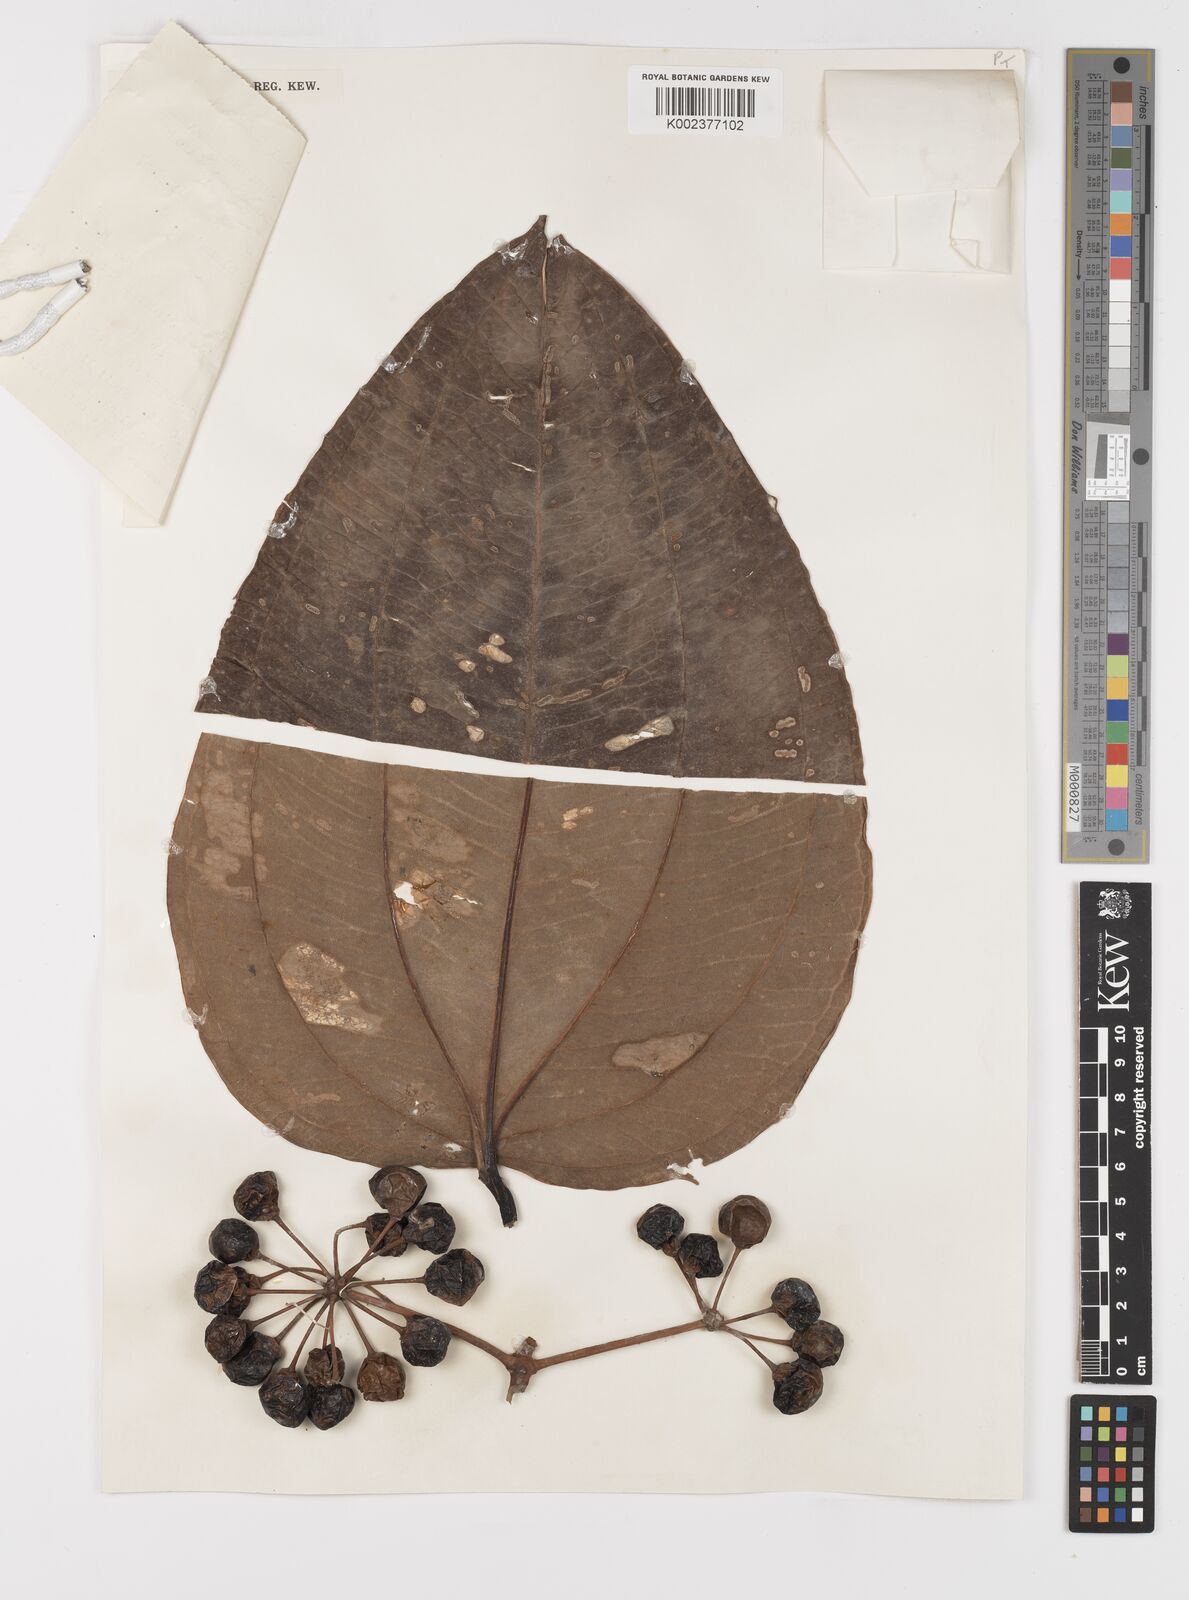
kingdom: Plantae
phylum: Tracheophyta
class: Liliopsida
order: Liliales
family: Smilacaceae
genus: Smilax
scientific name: Smilax blumei
